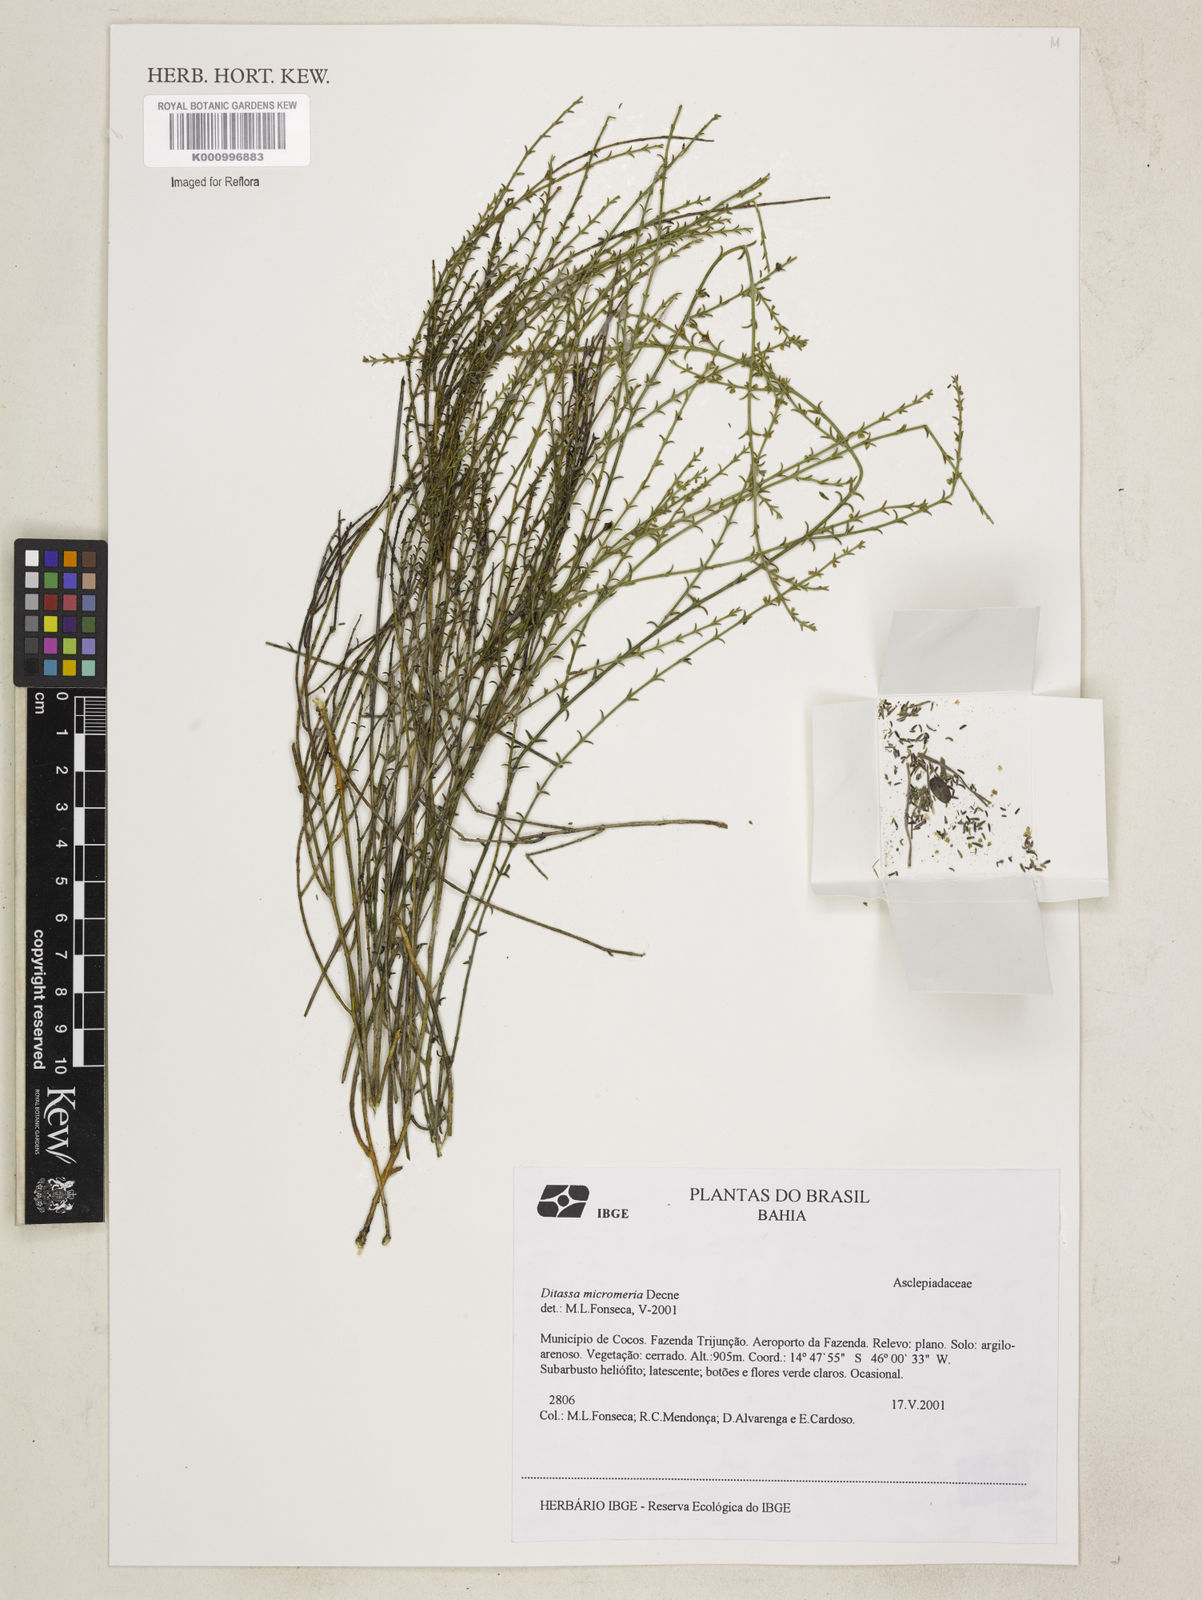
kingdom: Plantae
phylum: Tracheophyta
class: Magnoliopsida
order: Gentianales
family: Apocynaceae
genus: Minaria
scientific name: Minaria micromeria
